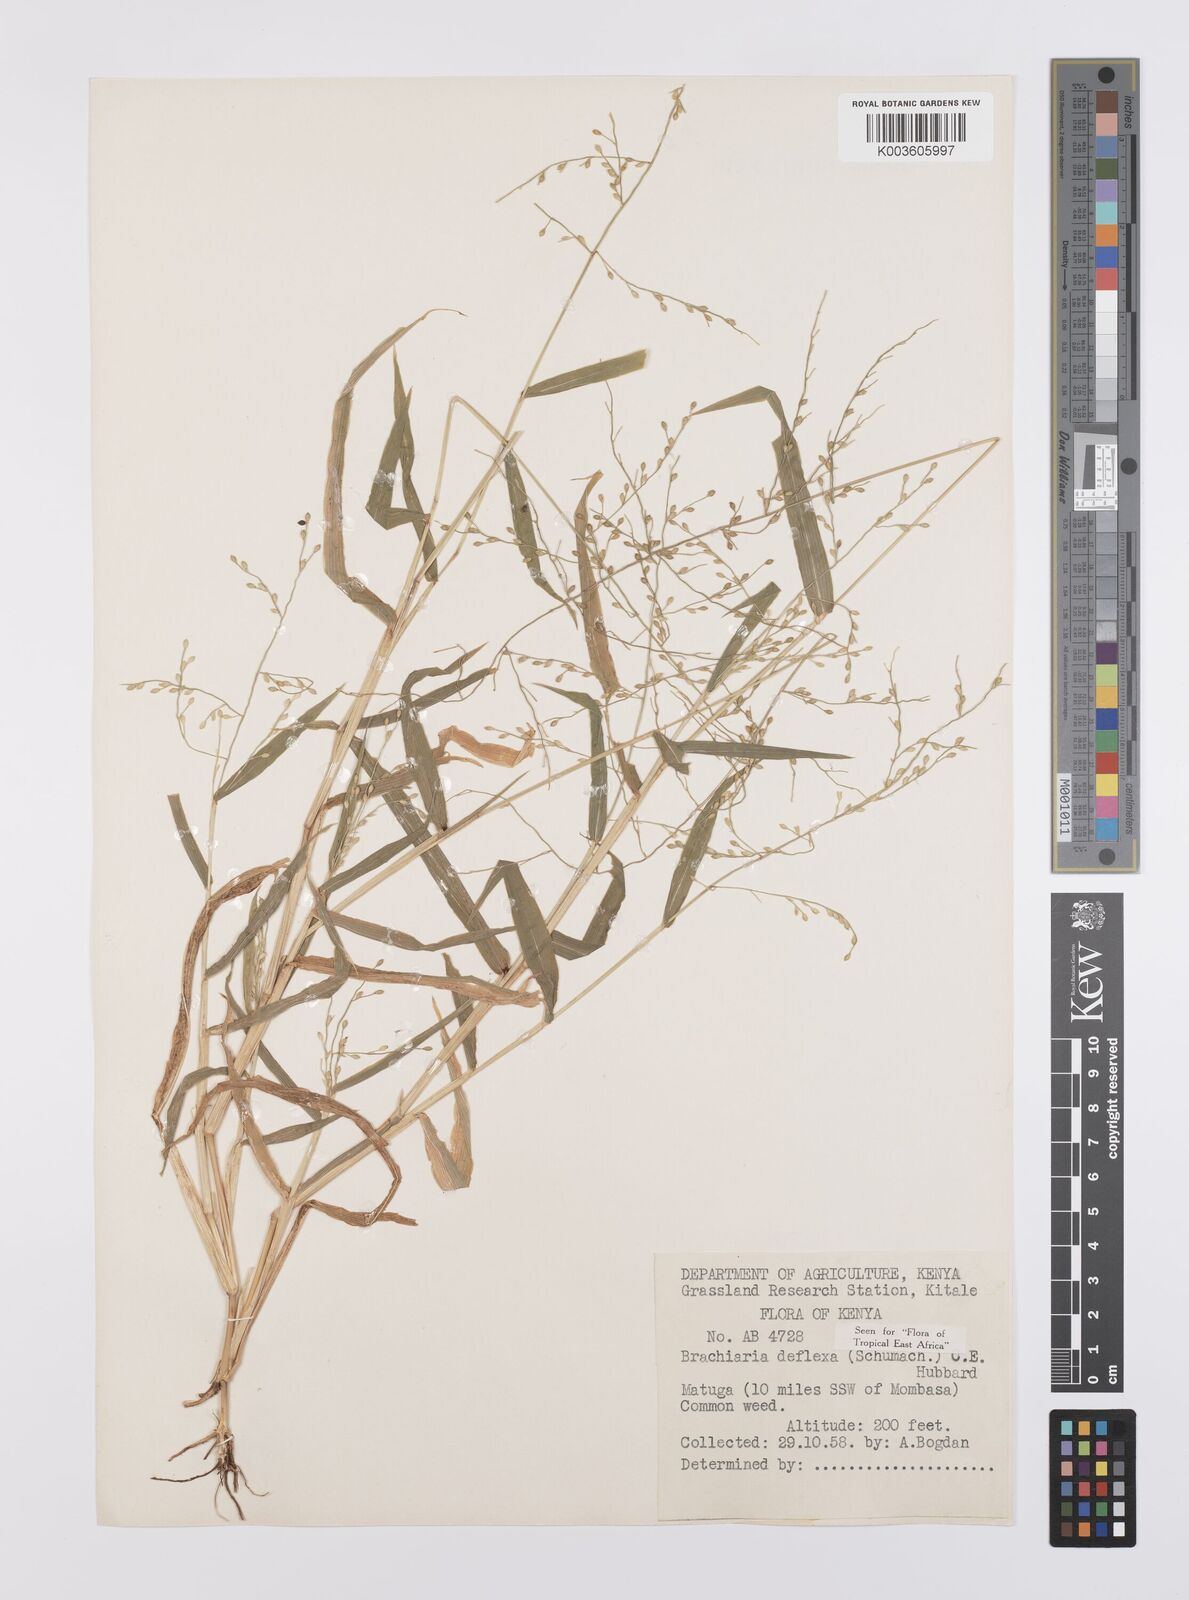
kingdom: Plantae
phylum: Tracheophyta
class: Liliopsida
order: Poales
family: Poaceae
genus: Urochloa
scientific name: Urochloa deflexa
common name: Guinea millet
